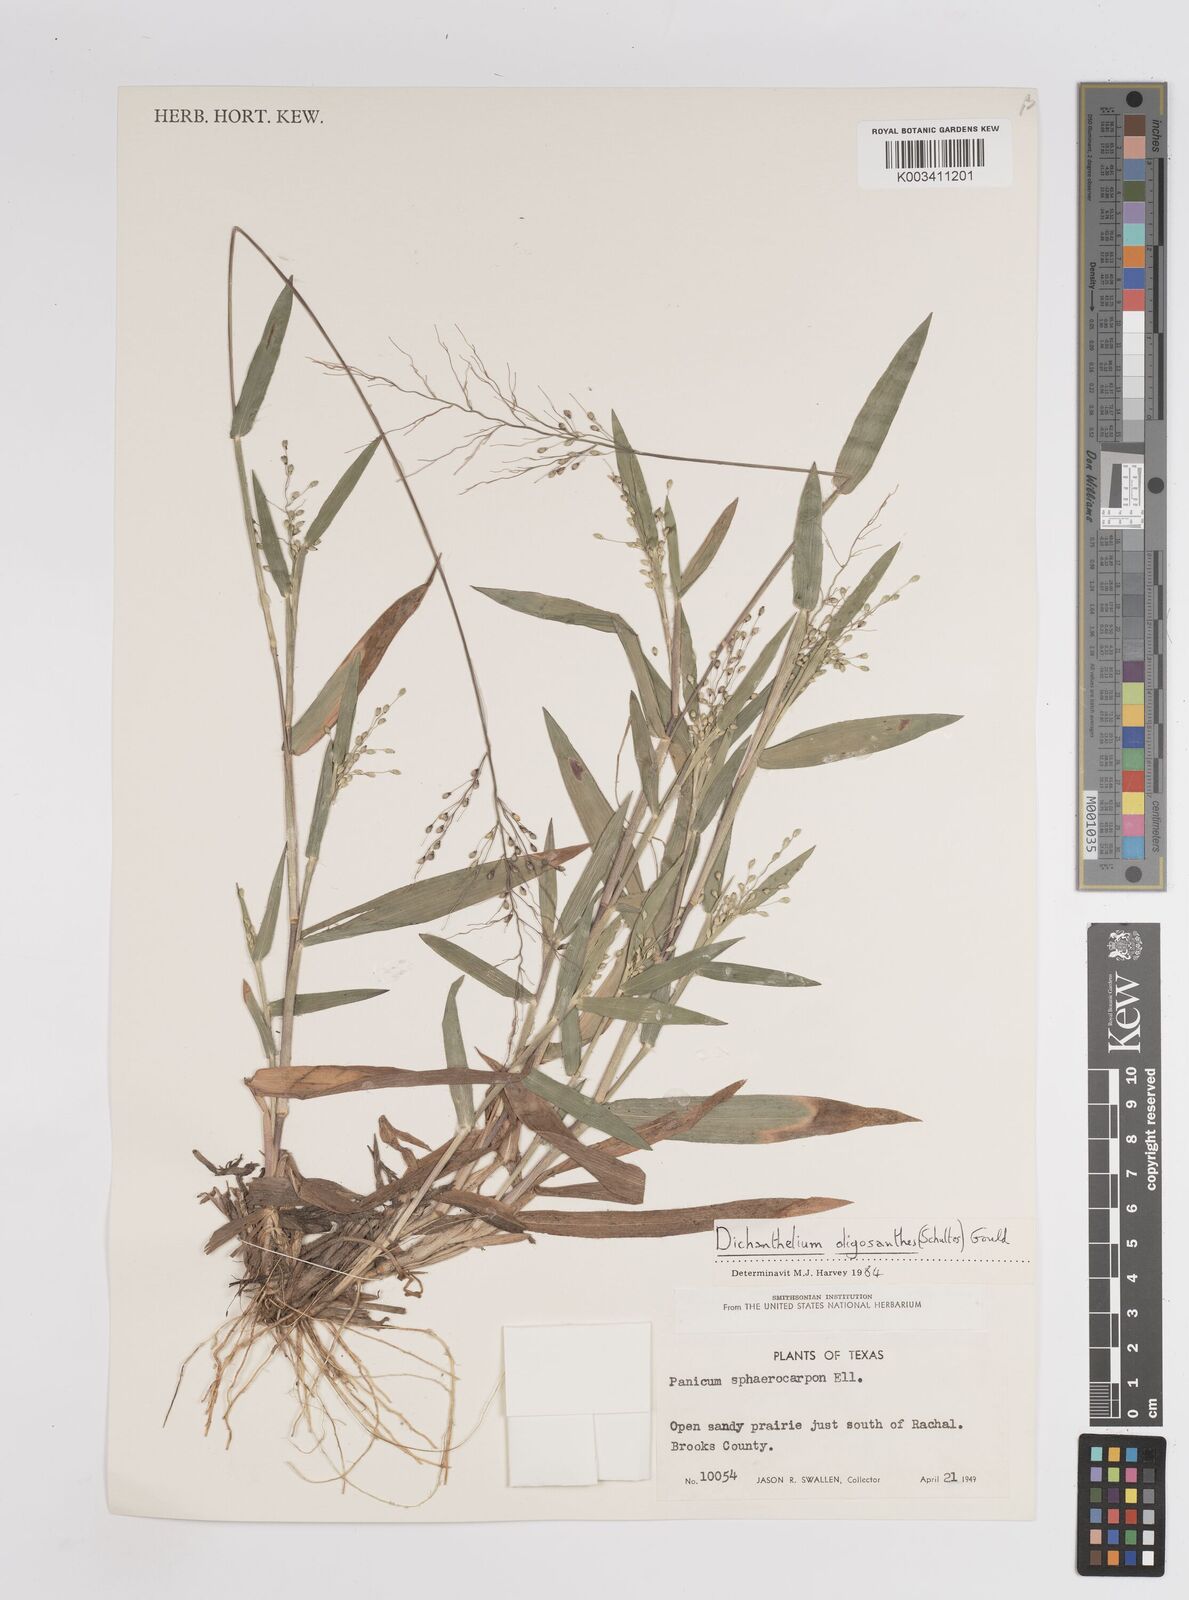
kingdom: Plantae
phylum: Tracheophyta
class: Liliopsida
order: Poales
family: Poaceae
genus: Dichanthelium
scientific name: Dichanthelium oligosanthes
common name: Few-anther obscuregrass
